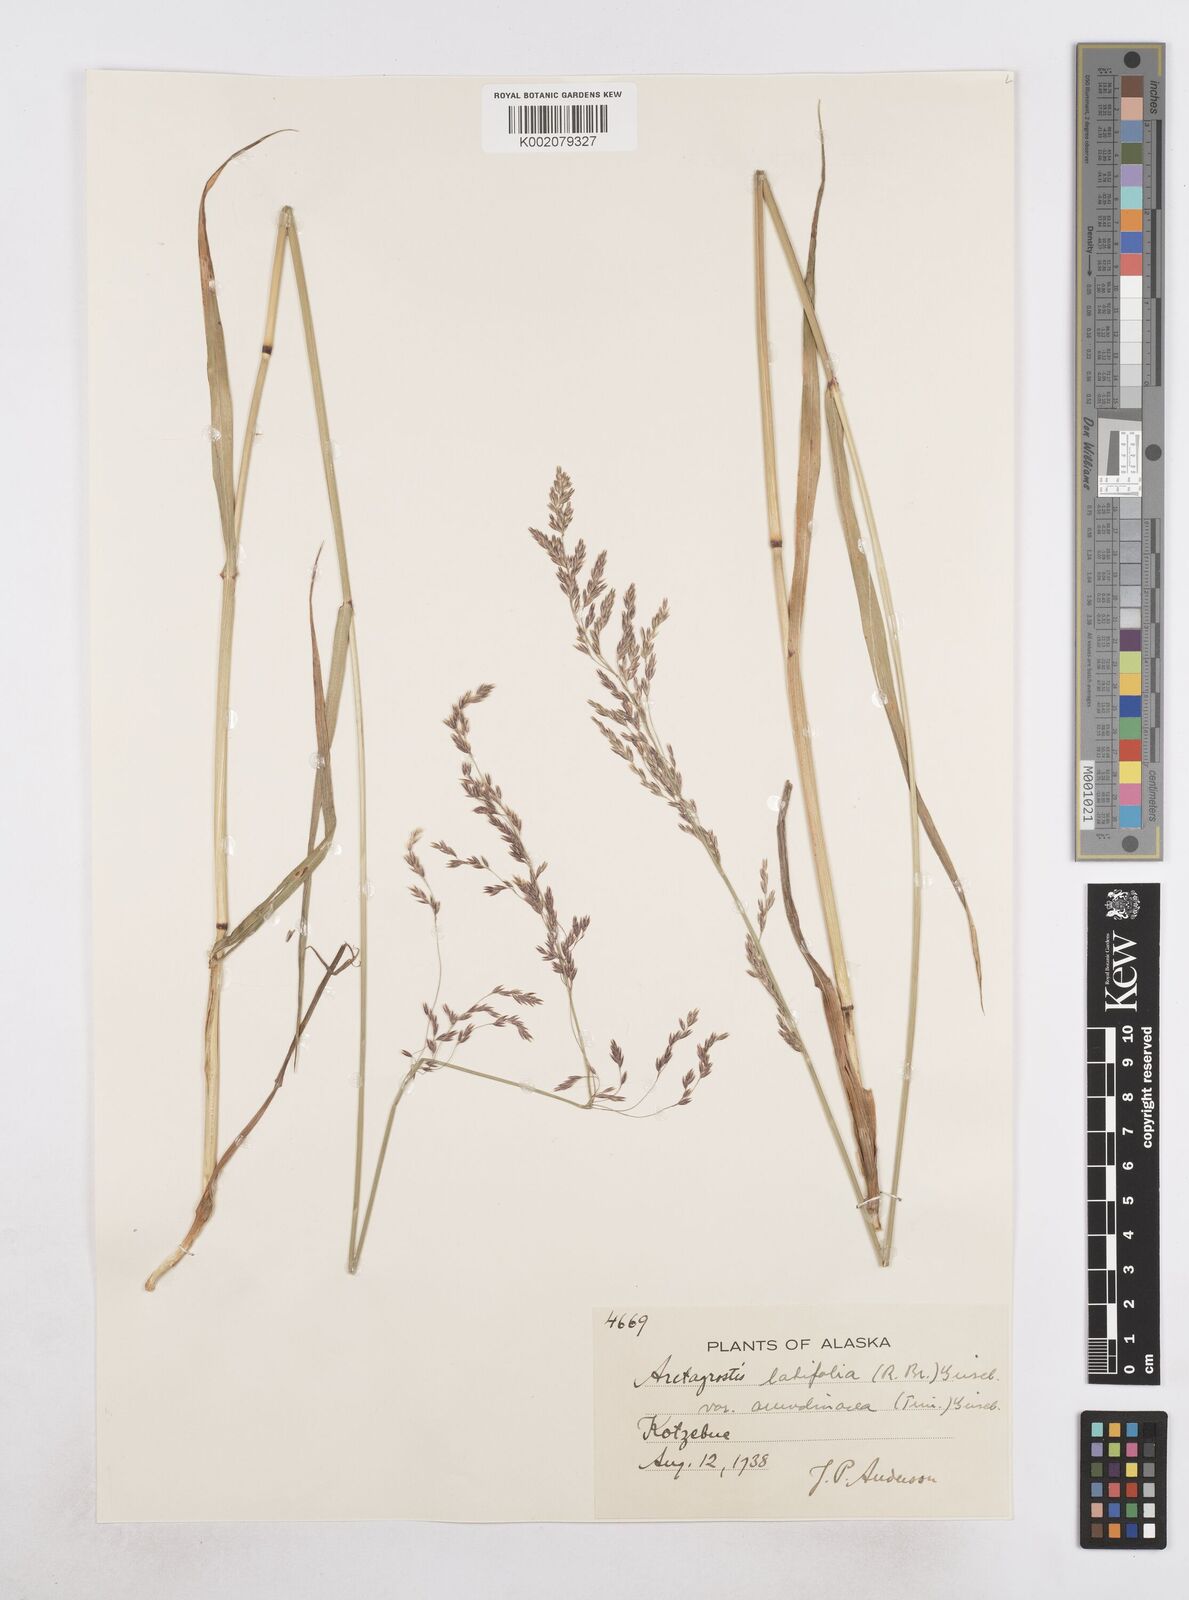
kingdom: Plantae
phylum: Tracheophyta
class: Liliopsida
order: Poales
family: Poaceae
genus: Arctagrostis
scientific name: Arctagrostis arundinacea
